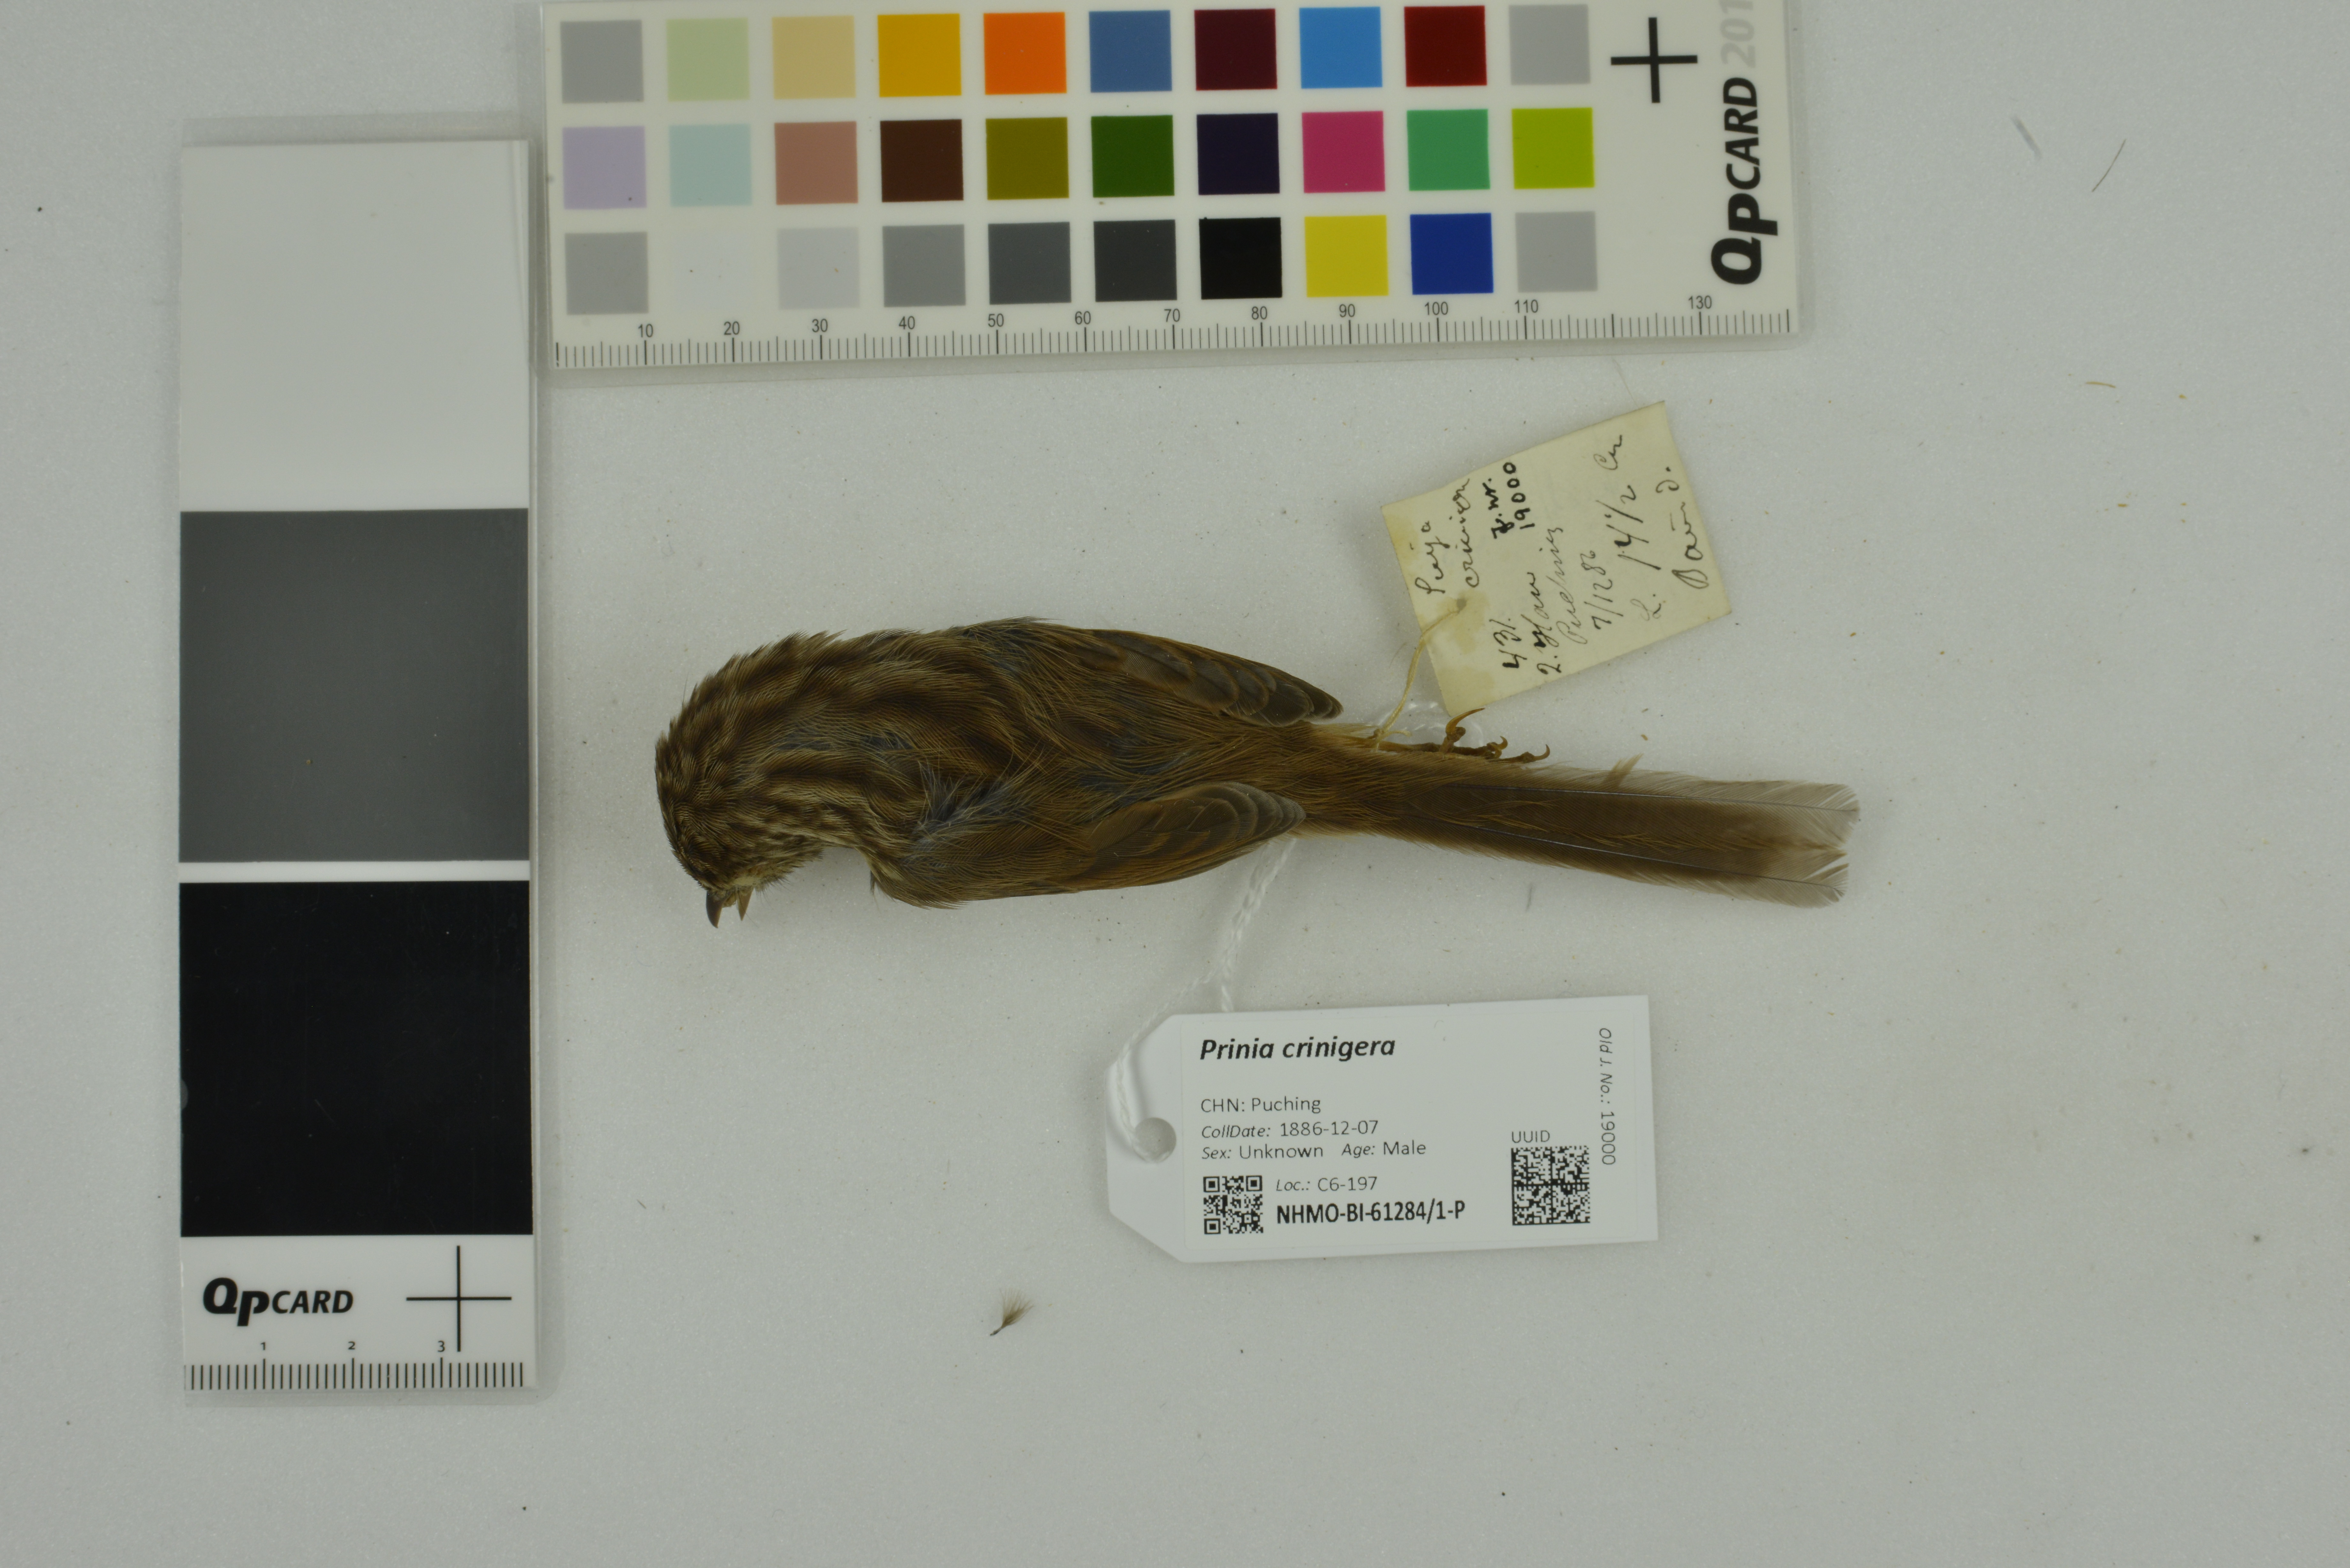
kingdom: Animalia
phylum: Chordata
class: Aves
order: Passeriformes
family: Cisticolidae
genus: Prinia
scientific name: Prinia crinigera
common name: Striated prinia
